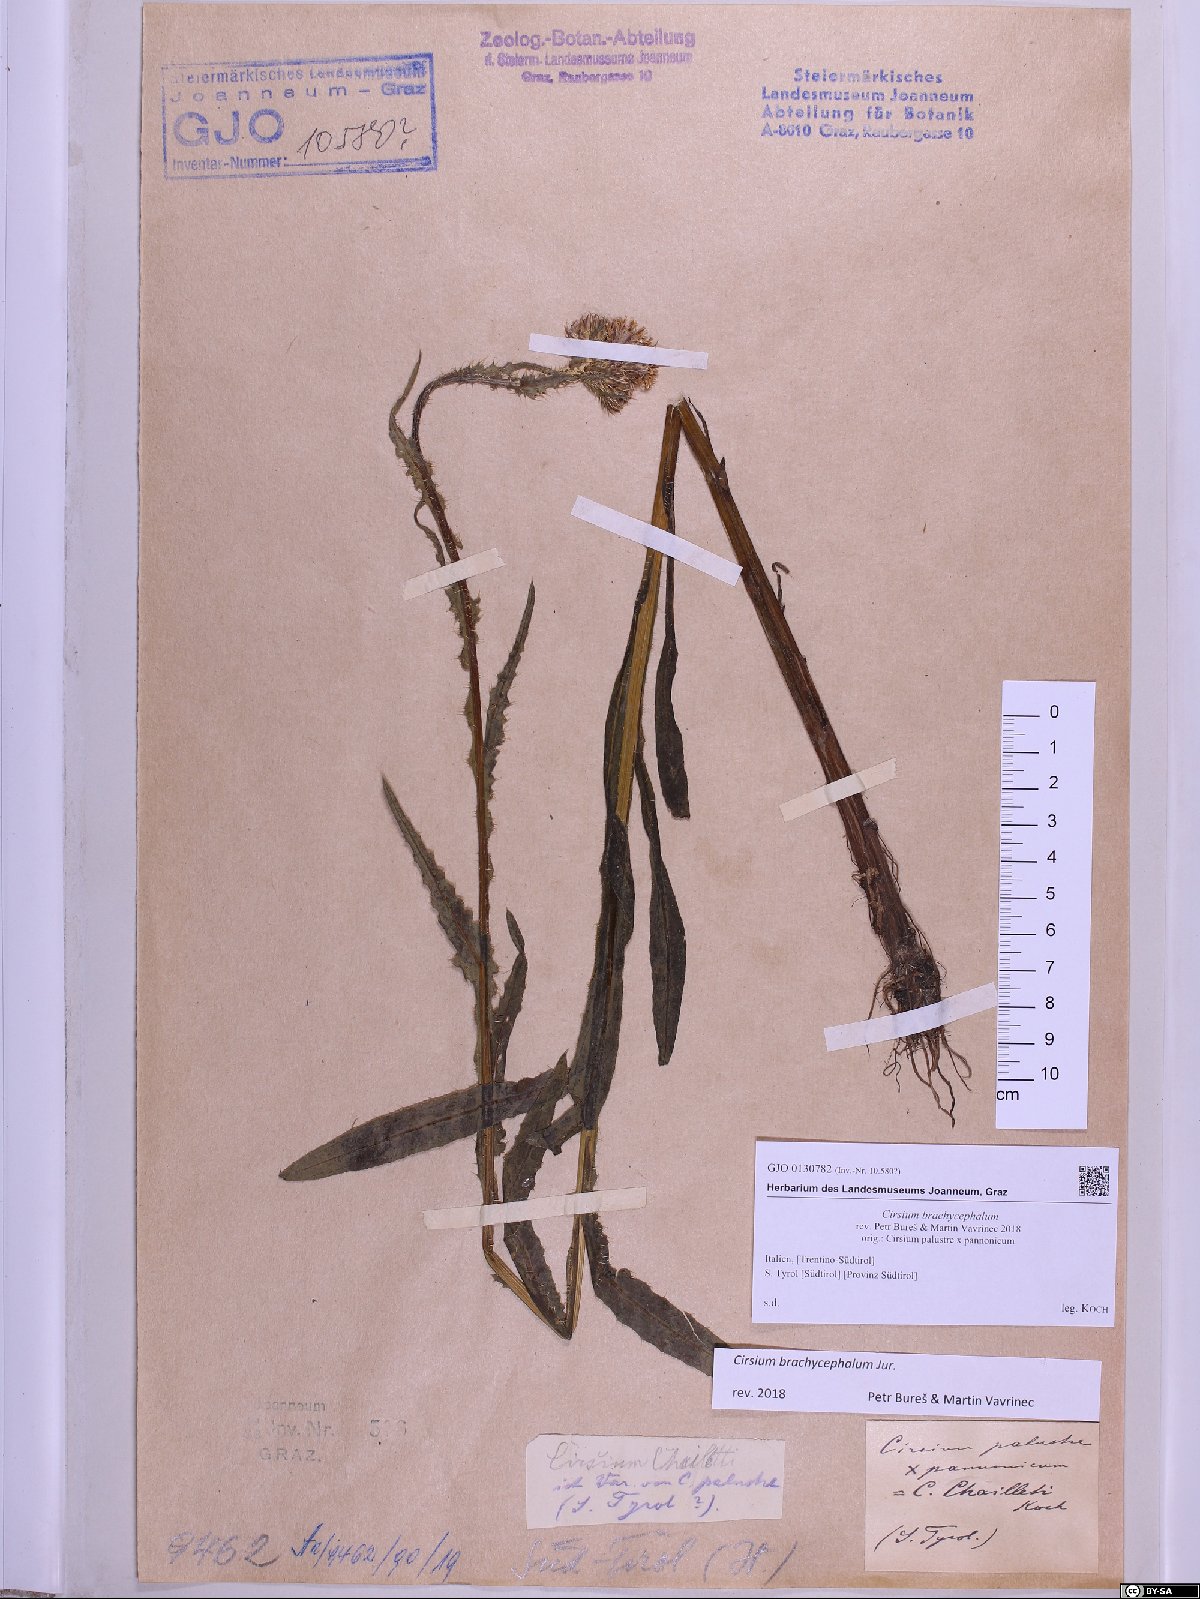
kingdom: Plantae
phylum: Tracheophyta
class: Magnoliopsida
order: Asterales
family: Asteraceae
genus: Cirsium
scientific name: Cirsium brachycephalum
